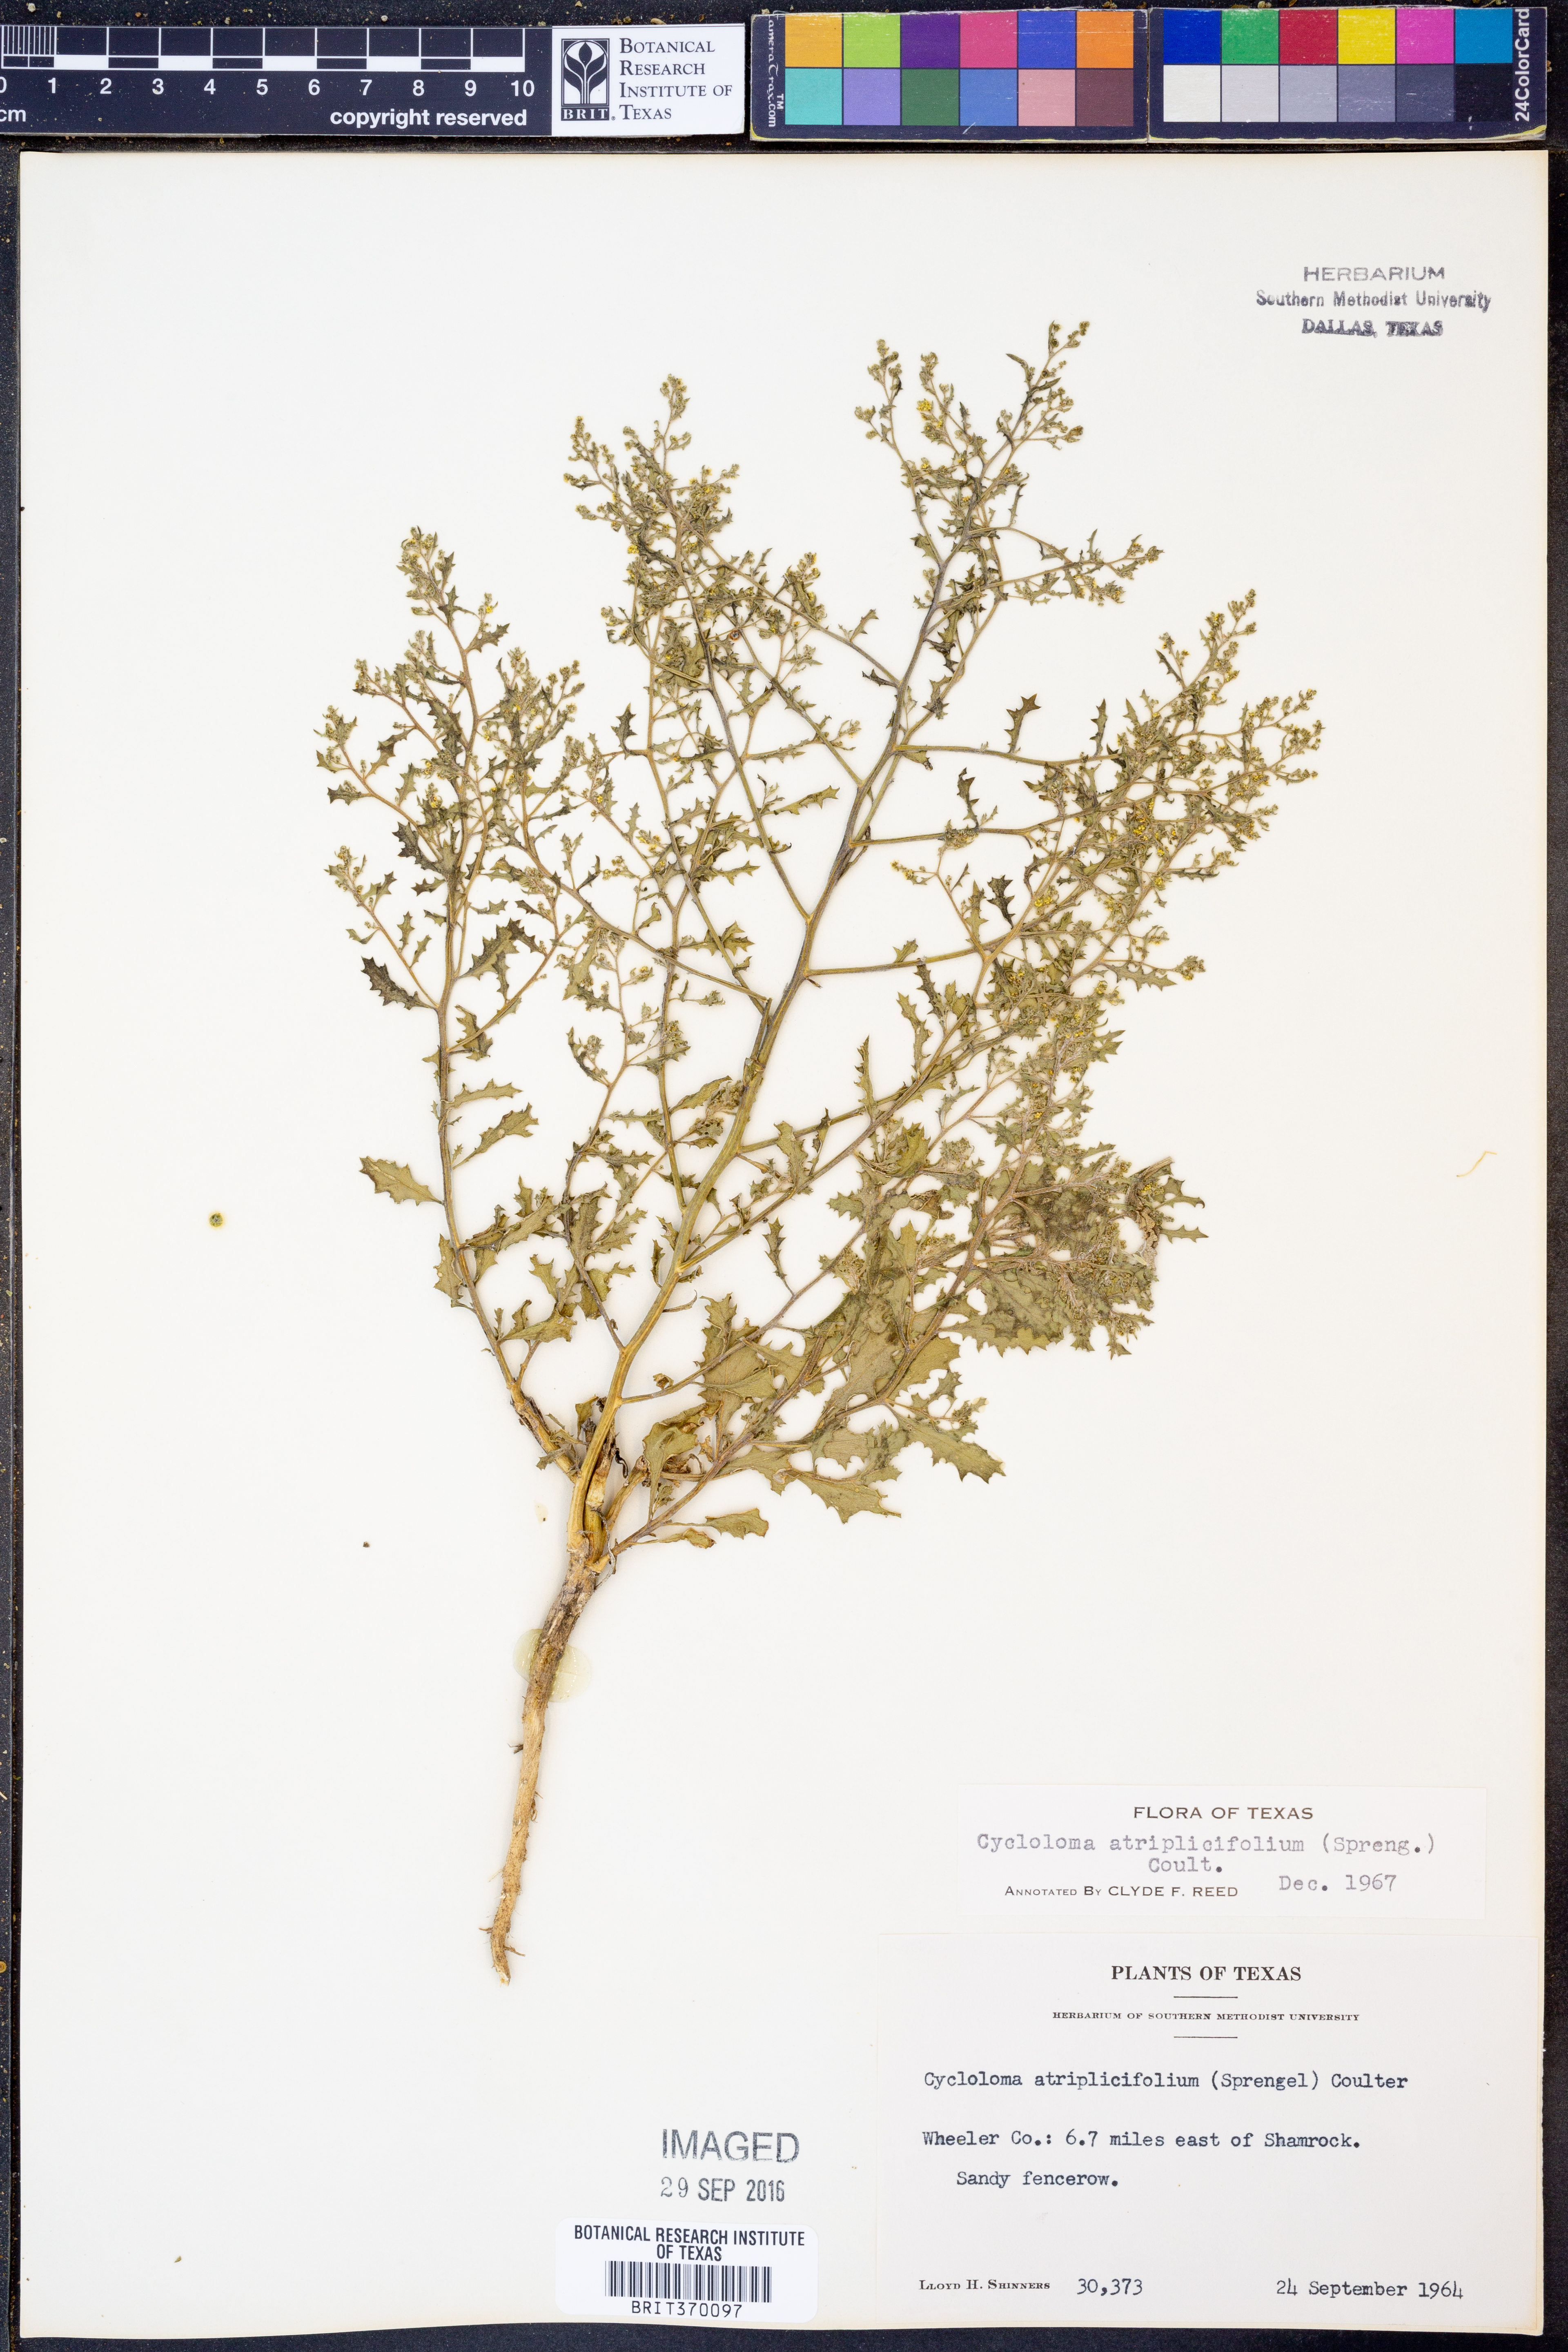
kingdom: Plantae
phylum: Tracheophyta
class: Magnoliopsida
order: Caryophyllales
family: Amaranthaceae
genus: Dysphania
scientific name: Dysphania atriplicifolia
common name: Plains tumbleweed
